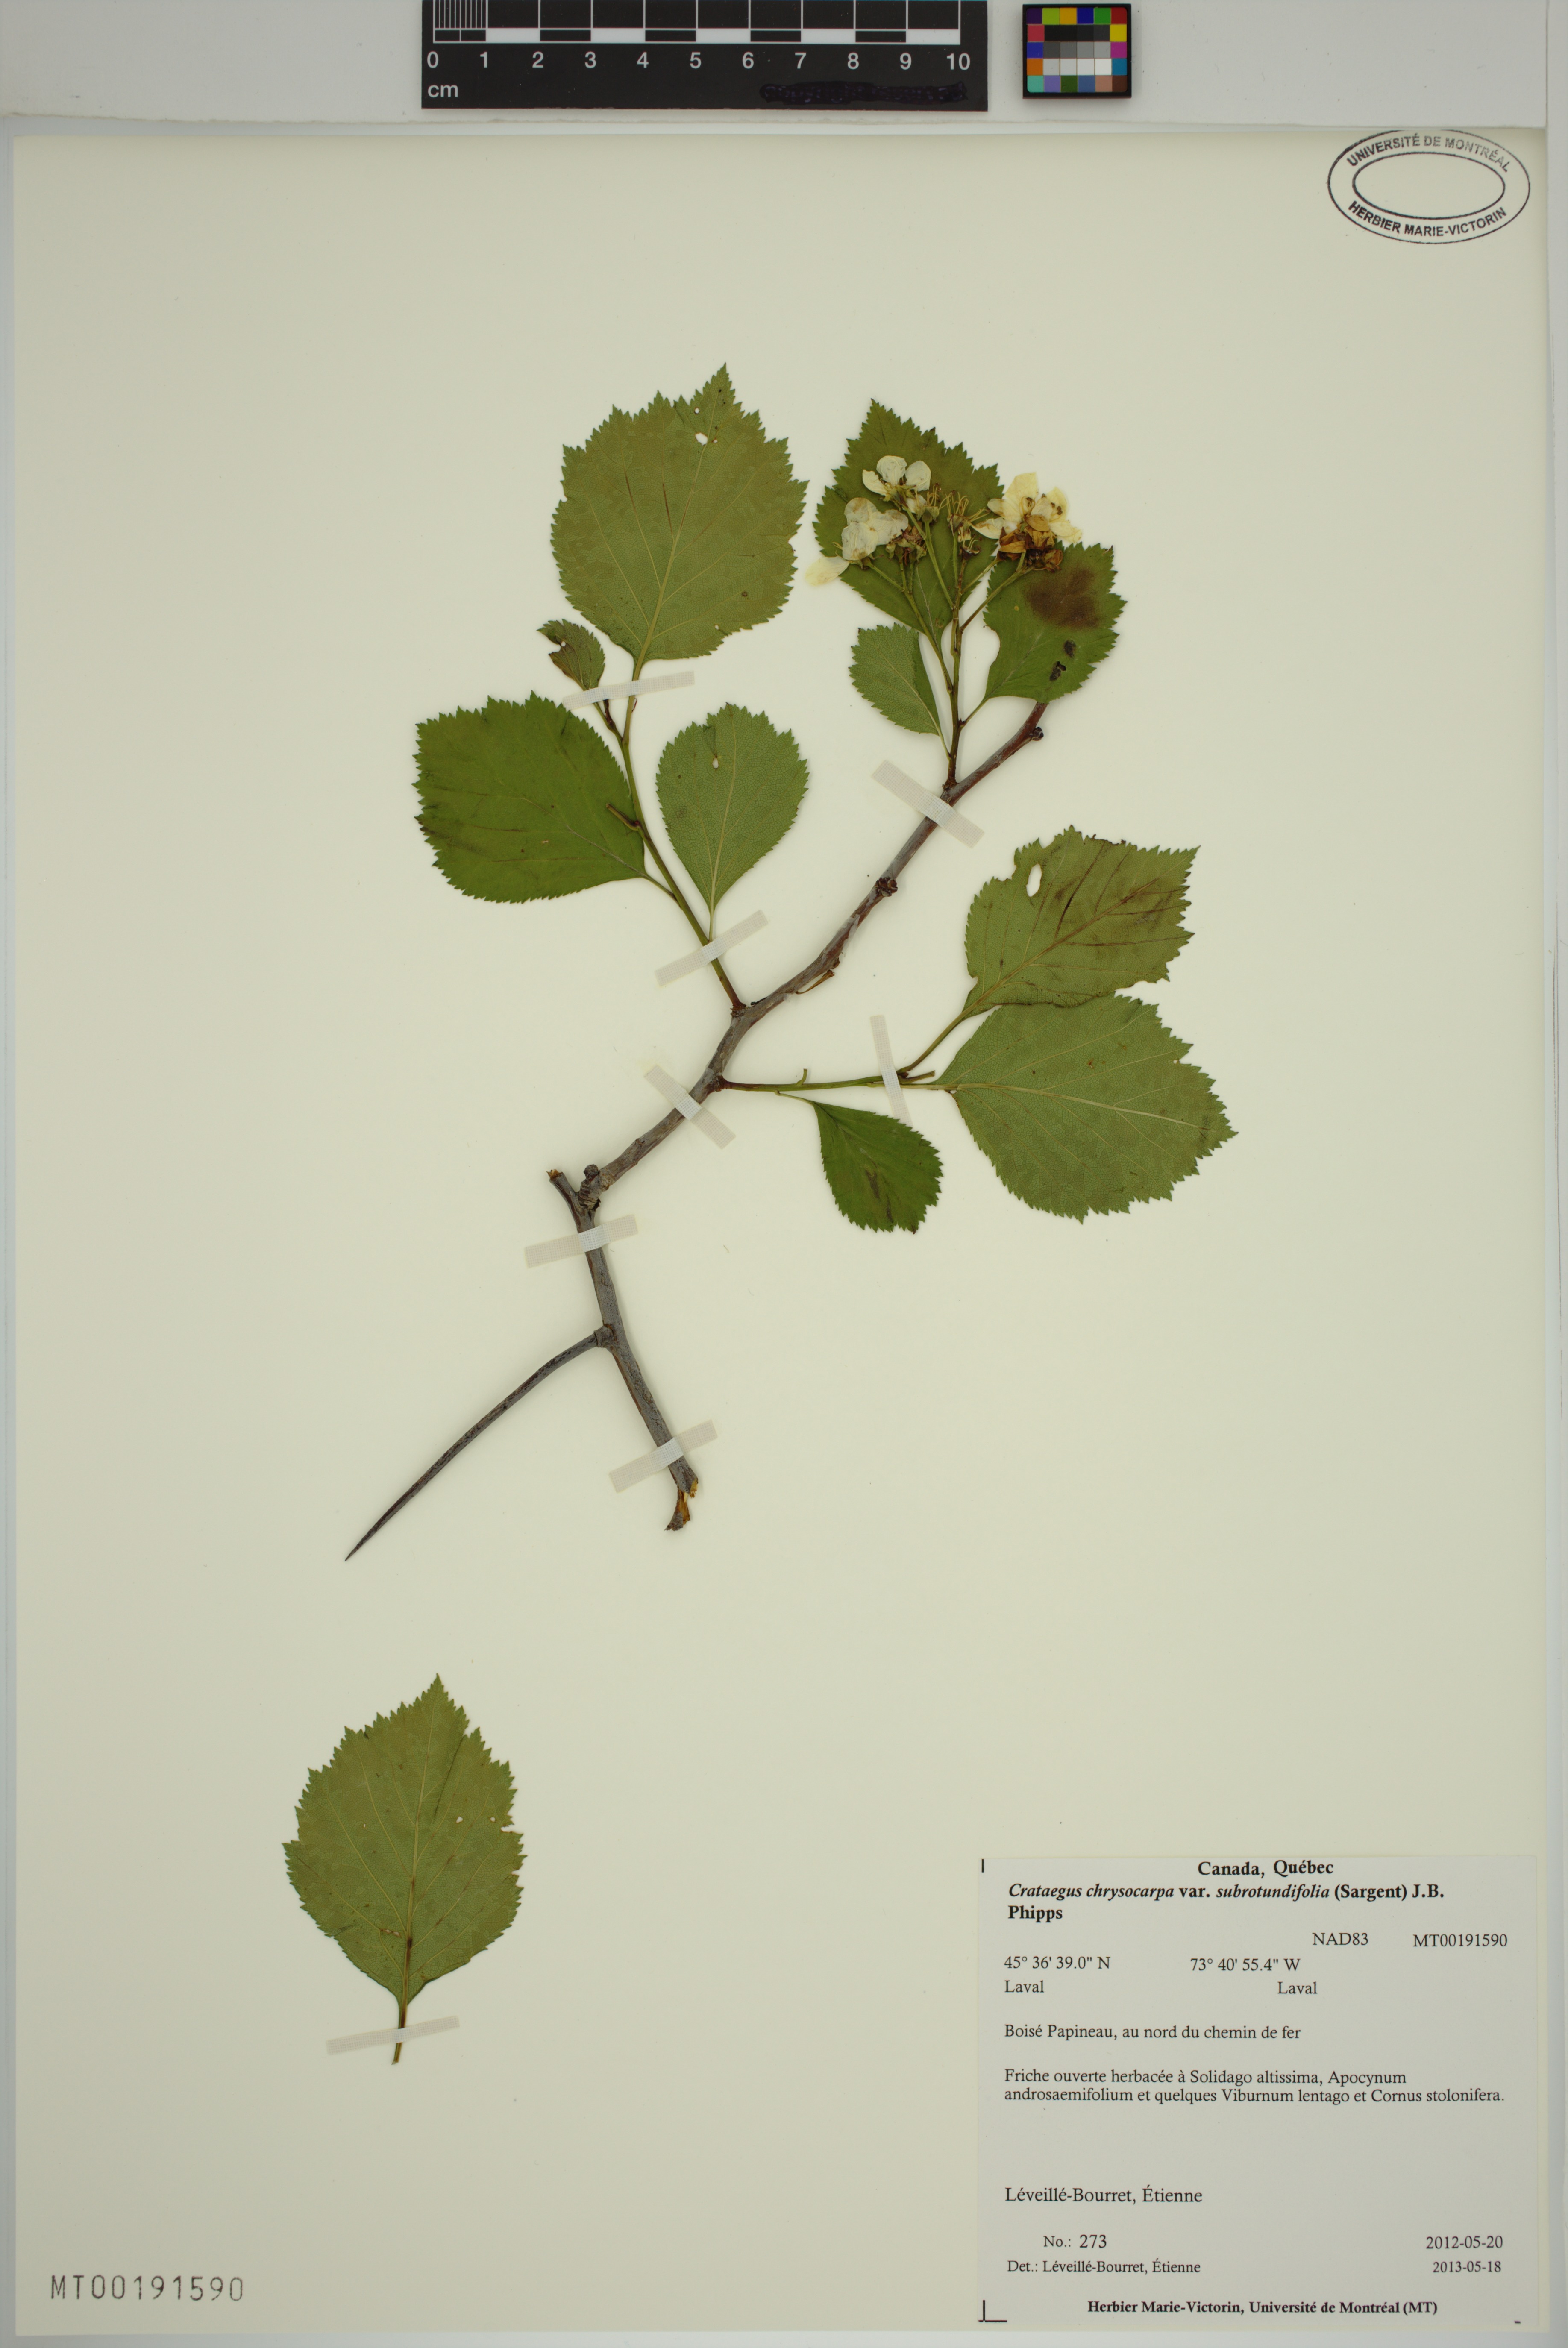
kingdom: Plantae
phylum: Tracheophyta
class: Magnoliopsida
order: Rosales
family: Rosaceae
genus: Crataegus
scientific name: Crataegus chrysocarpa
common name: Fire-berry hawthorn
